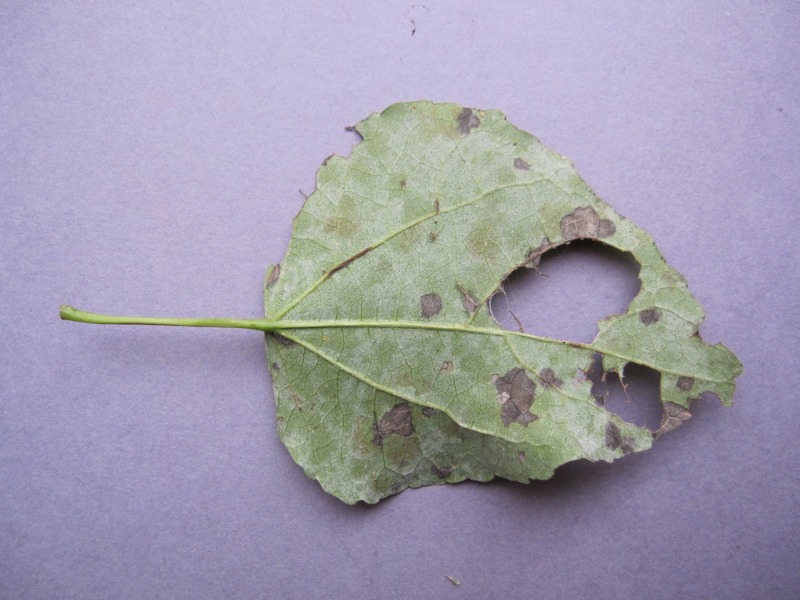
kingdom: Fungi
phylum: Ascomycota
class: Leotiomycetes
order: Helotiales
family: Erysiphaceae
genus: Erysiphe
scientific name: Erysiphe adunca
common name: Willow mildew
